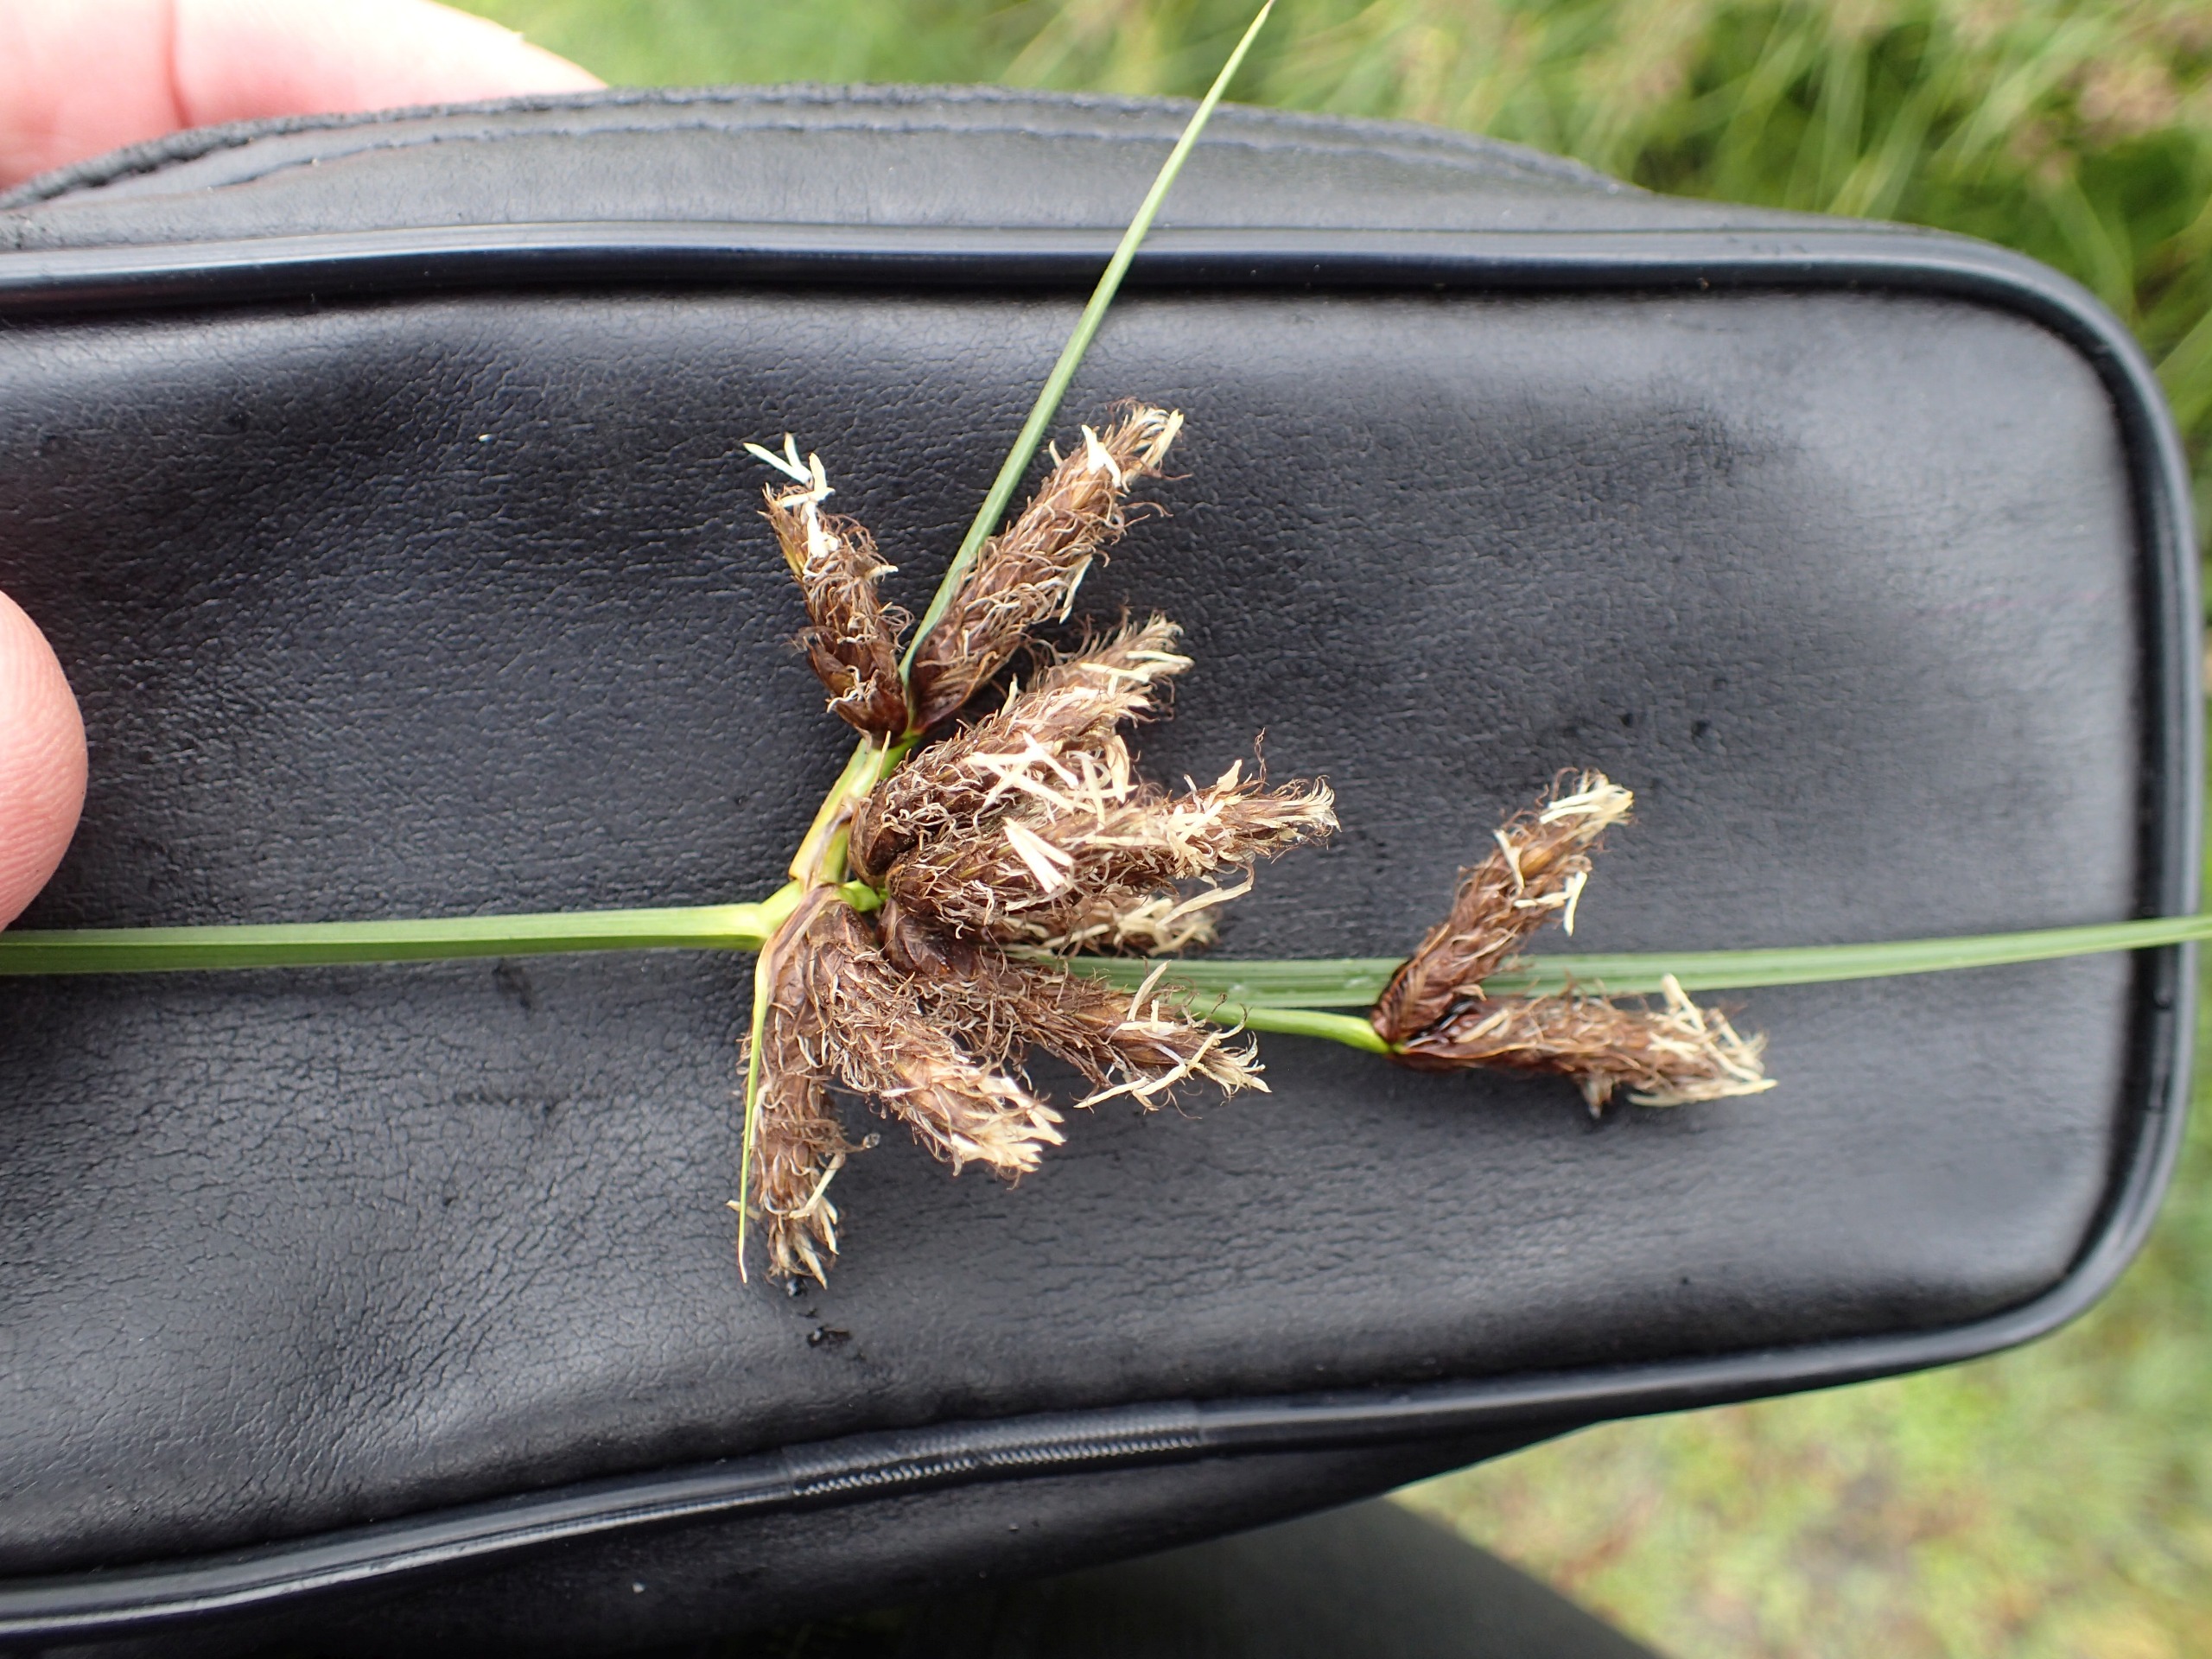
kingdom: Plantae
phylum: Tracheophyta
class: Liliopsida
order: Poales
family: Cyperaceae
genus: Bolboschoenus
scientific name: Bolboschoenus maritimus
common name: Strand-kogleaks
